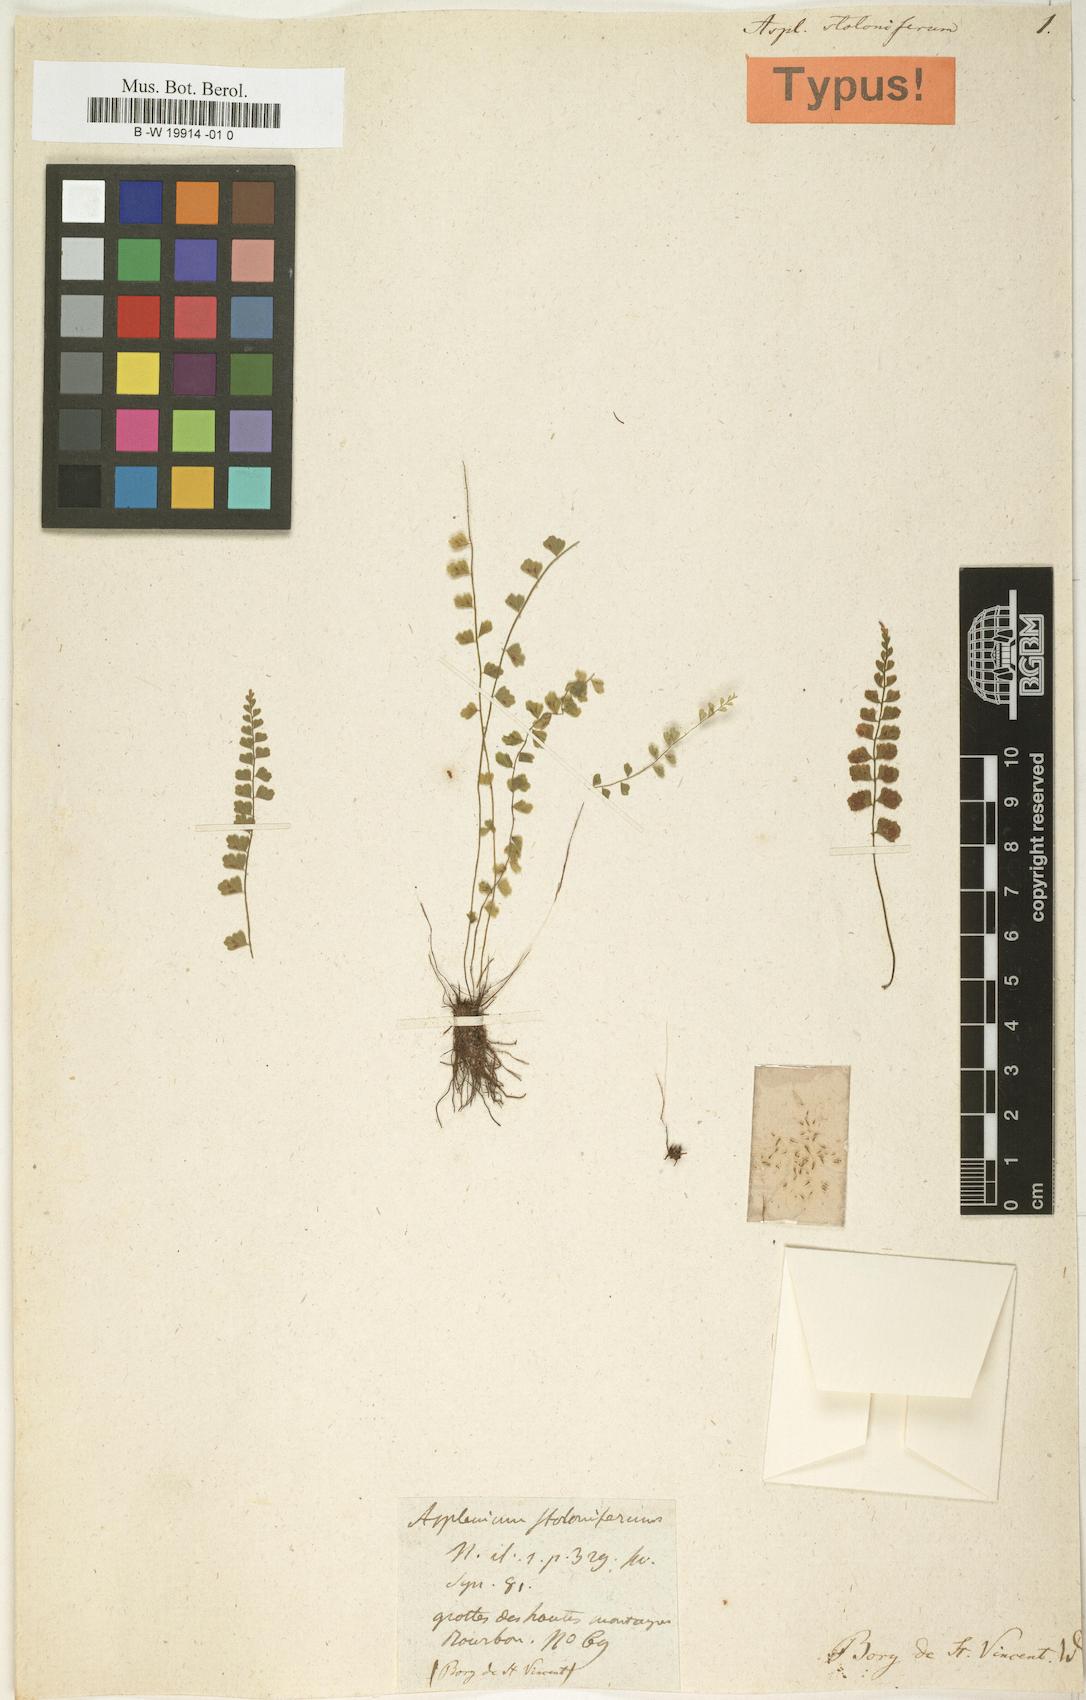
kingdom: Plantae
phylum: Tracheophyta
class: Polypodiopsida
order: Polypodiales
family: Aspleniaceae
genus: Asplenium
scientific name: Asplenium stoloniferum
